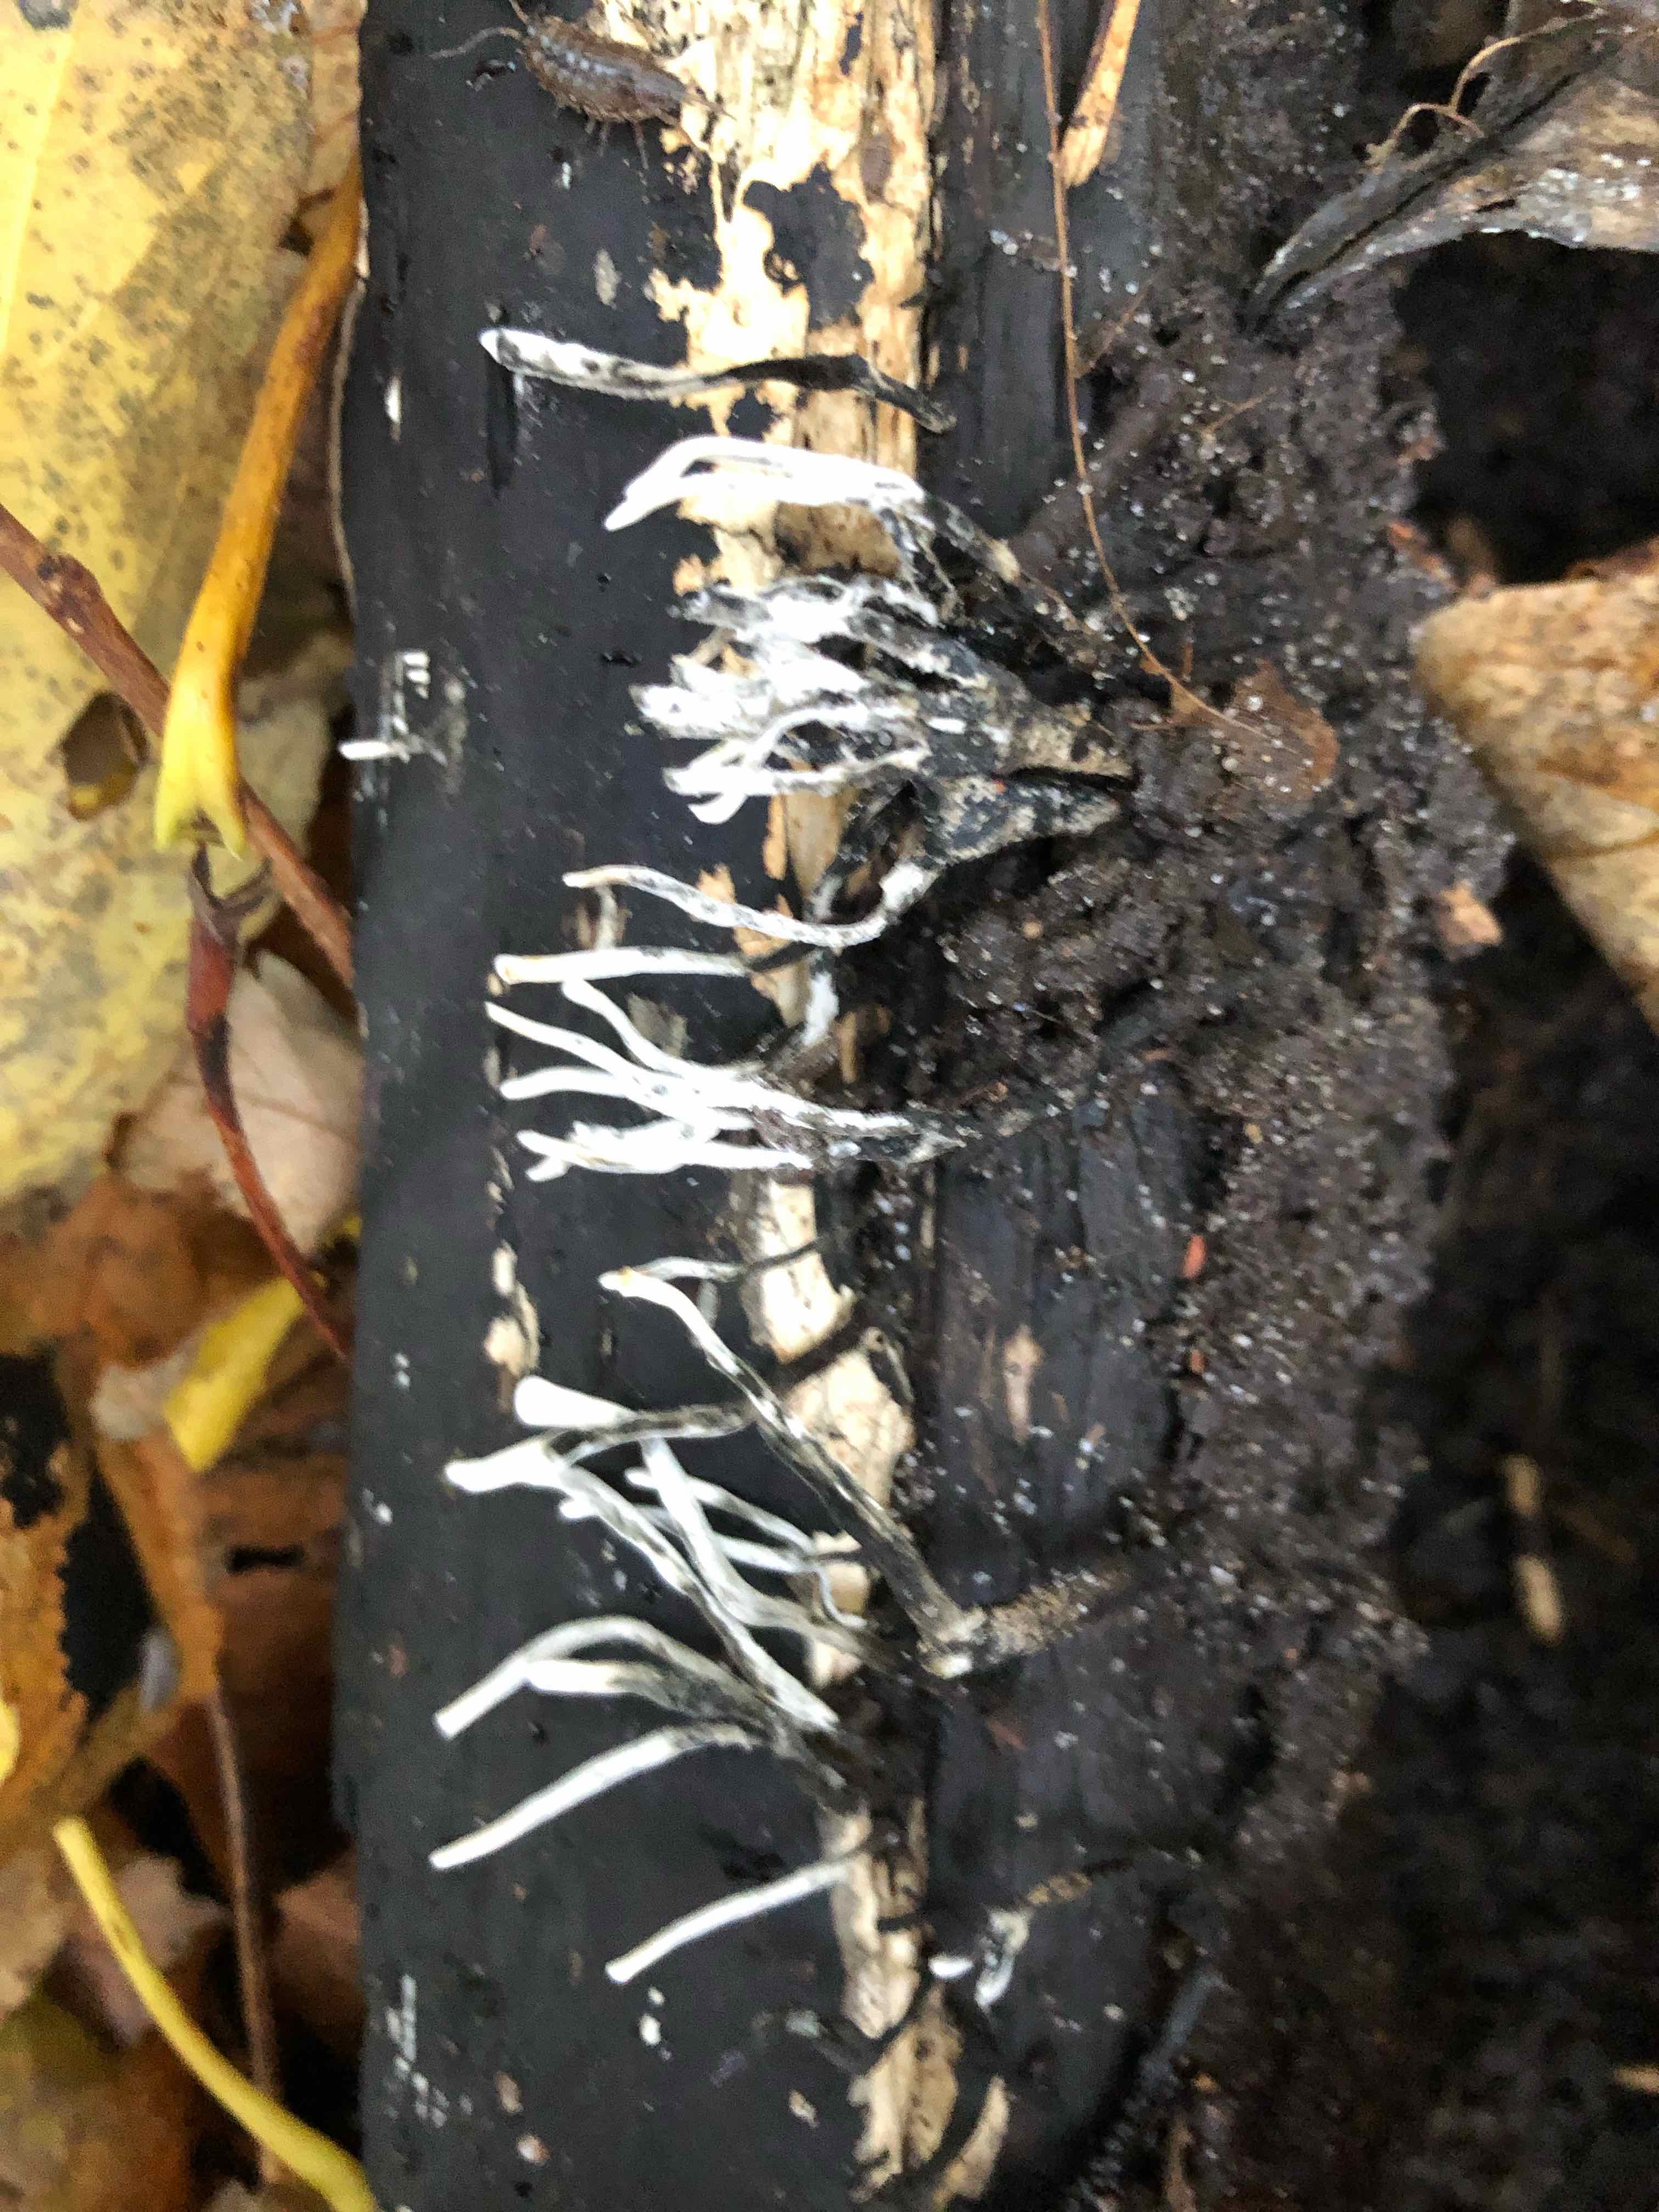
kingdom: Fungi
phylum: Ascomycota
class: Sordariomycetes
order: Xylariales
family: Xylariaceae
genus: Xylaria
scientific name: Xylaria hypoxylon
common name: grenet stødsvamp
